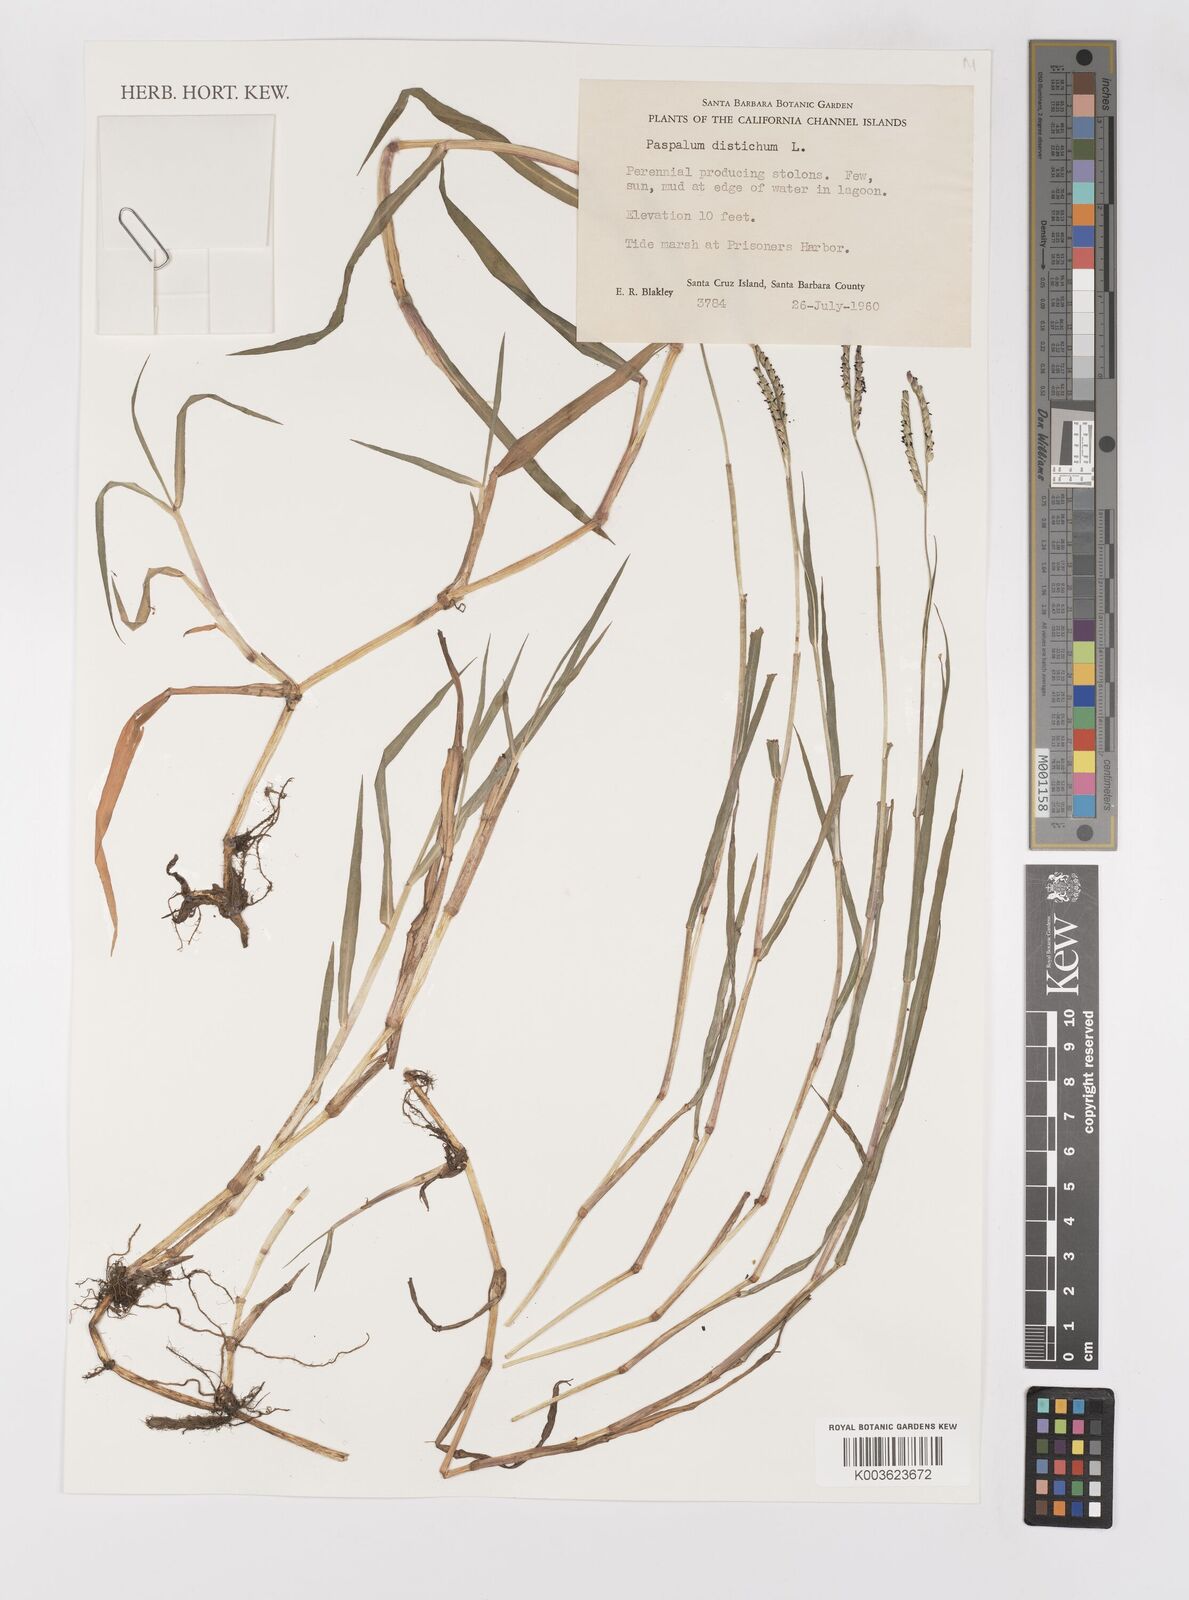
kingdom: Plantae
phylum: Tracheophyta
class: Liliopsida
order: Poales
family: Poaceae
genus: Paspalum
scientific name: Paspalum distichum
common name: Knotgrass
